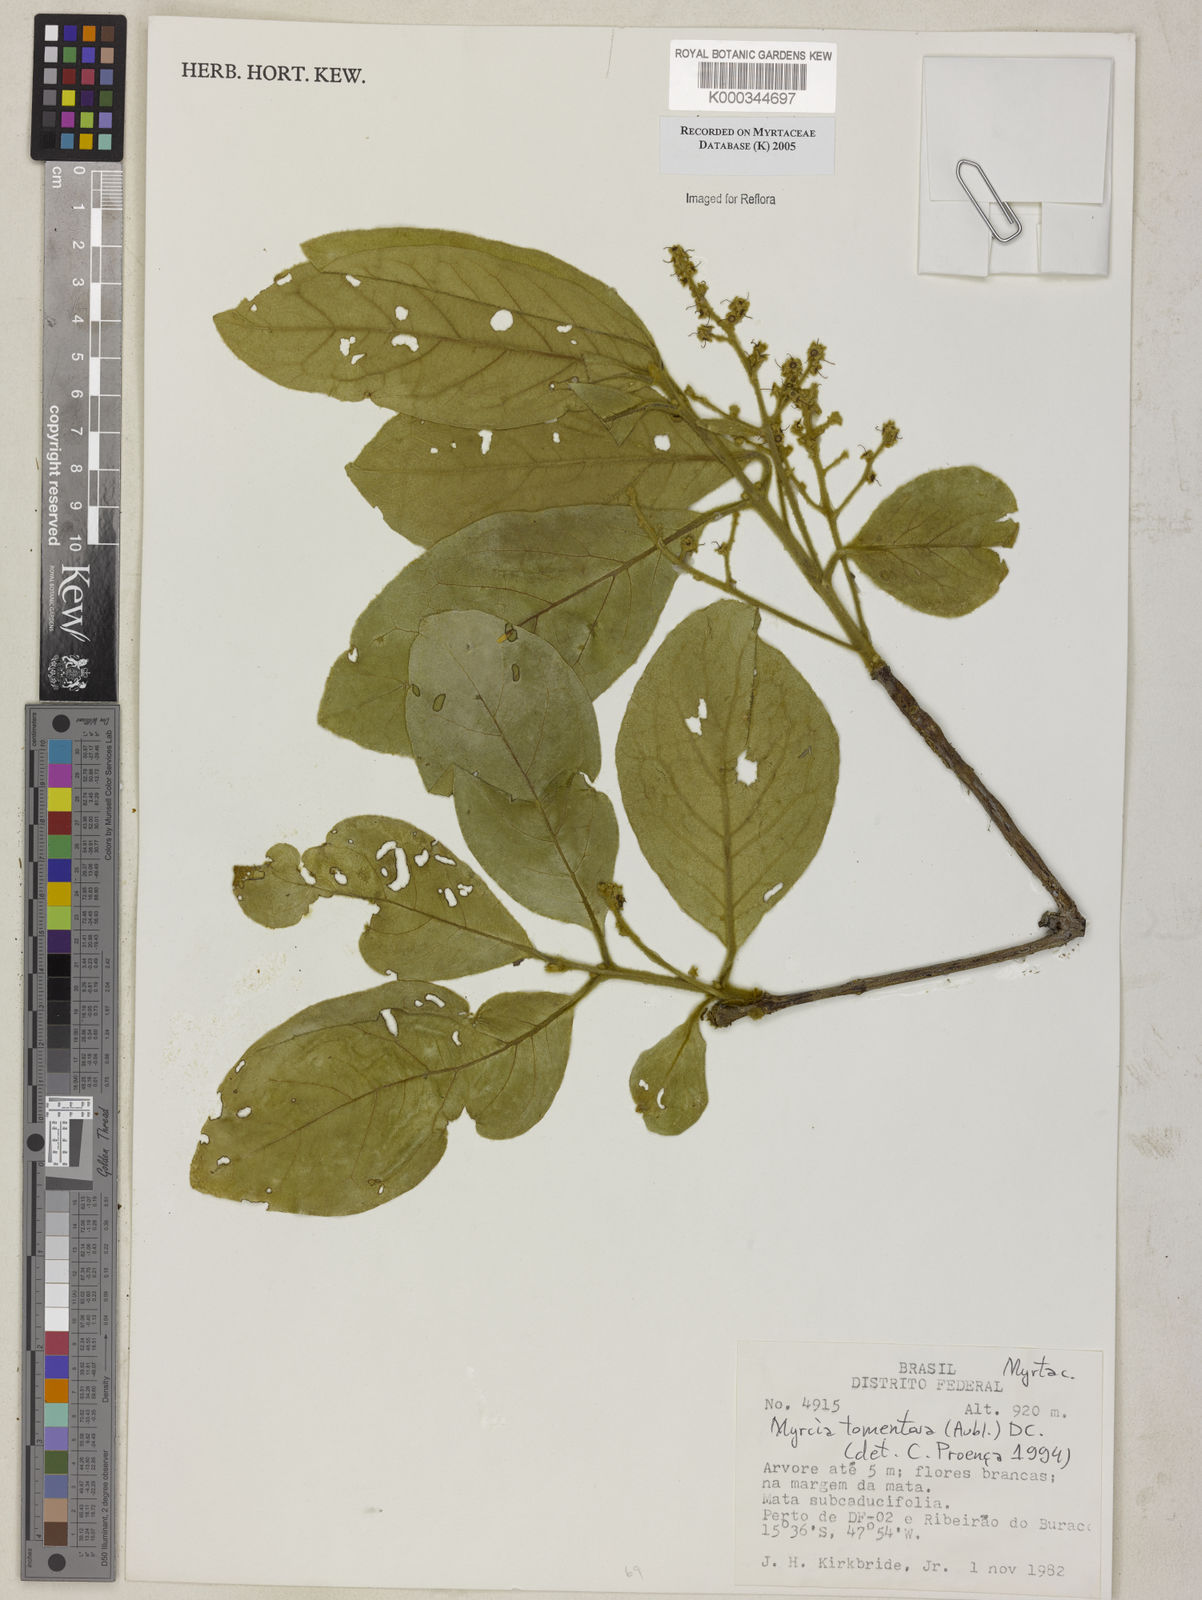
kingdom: Plantae
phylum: Tracheophyta
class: Magnoliopsida
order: Myrtales
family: Myrtaceae
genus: Myrcia
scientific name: Myrcia tomentosa
